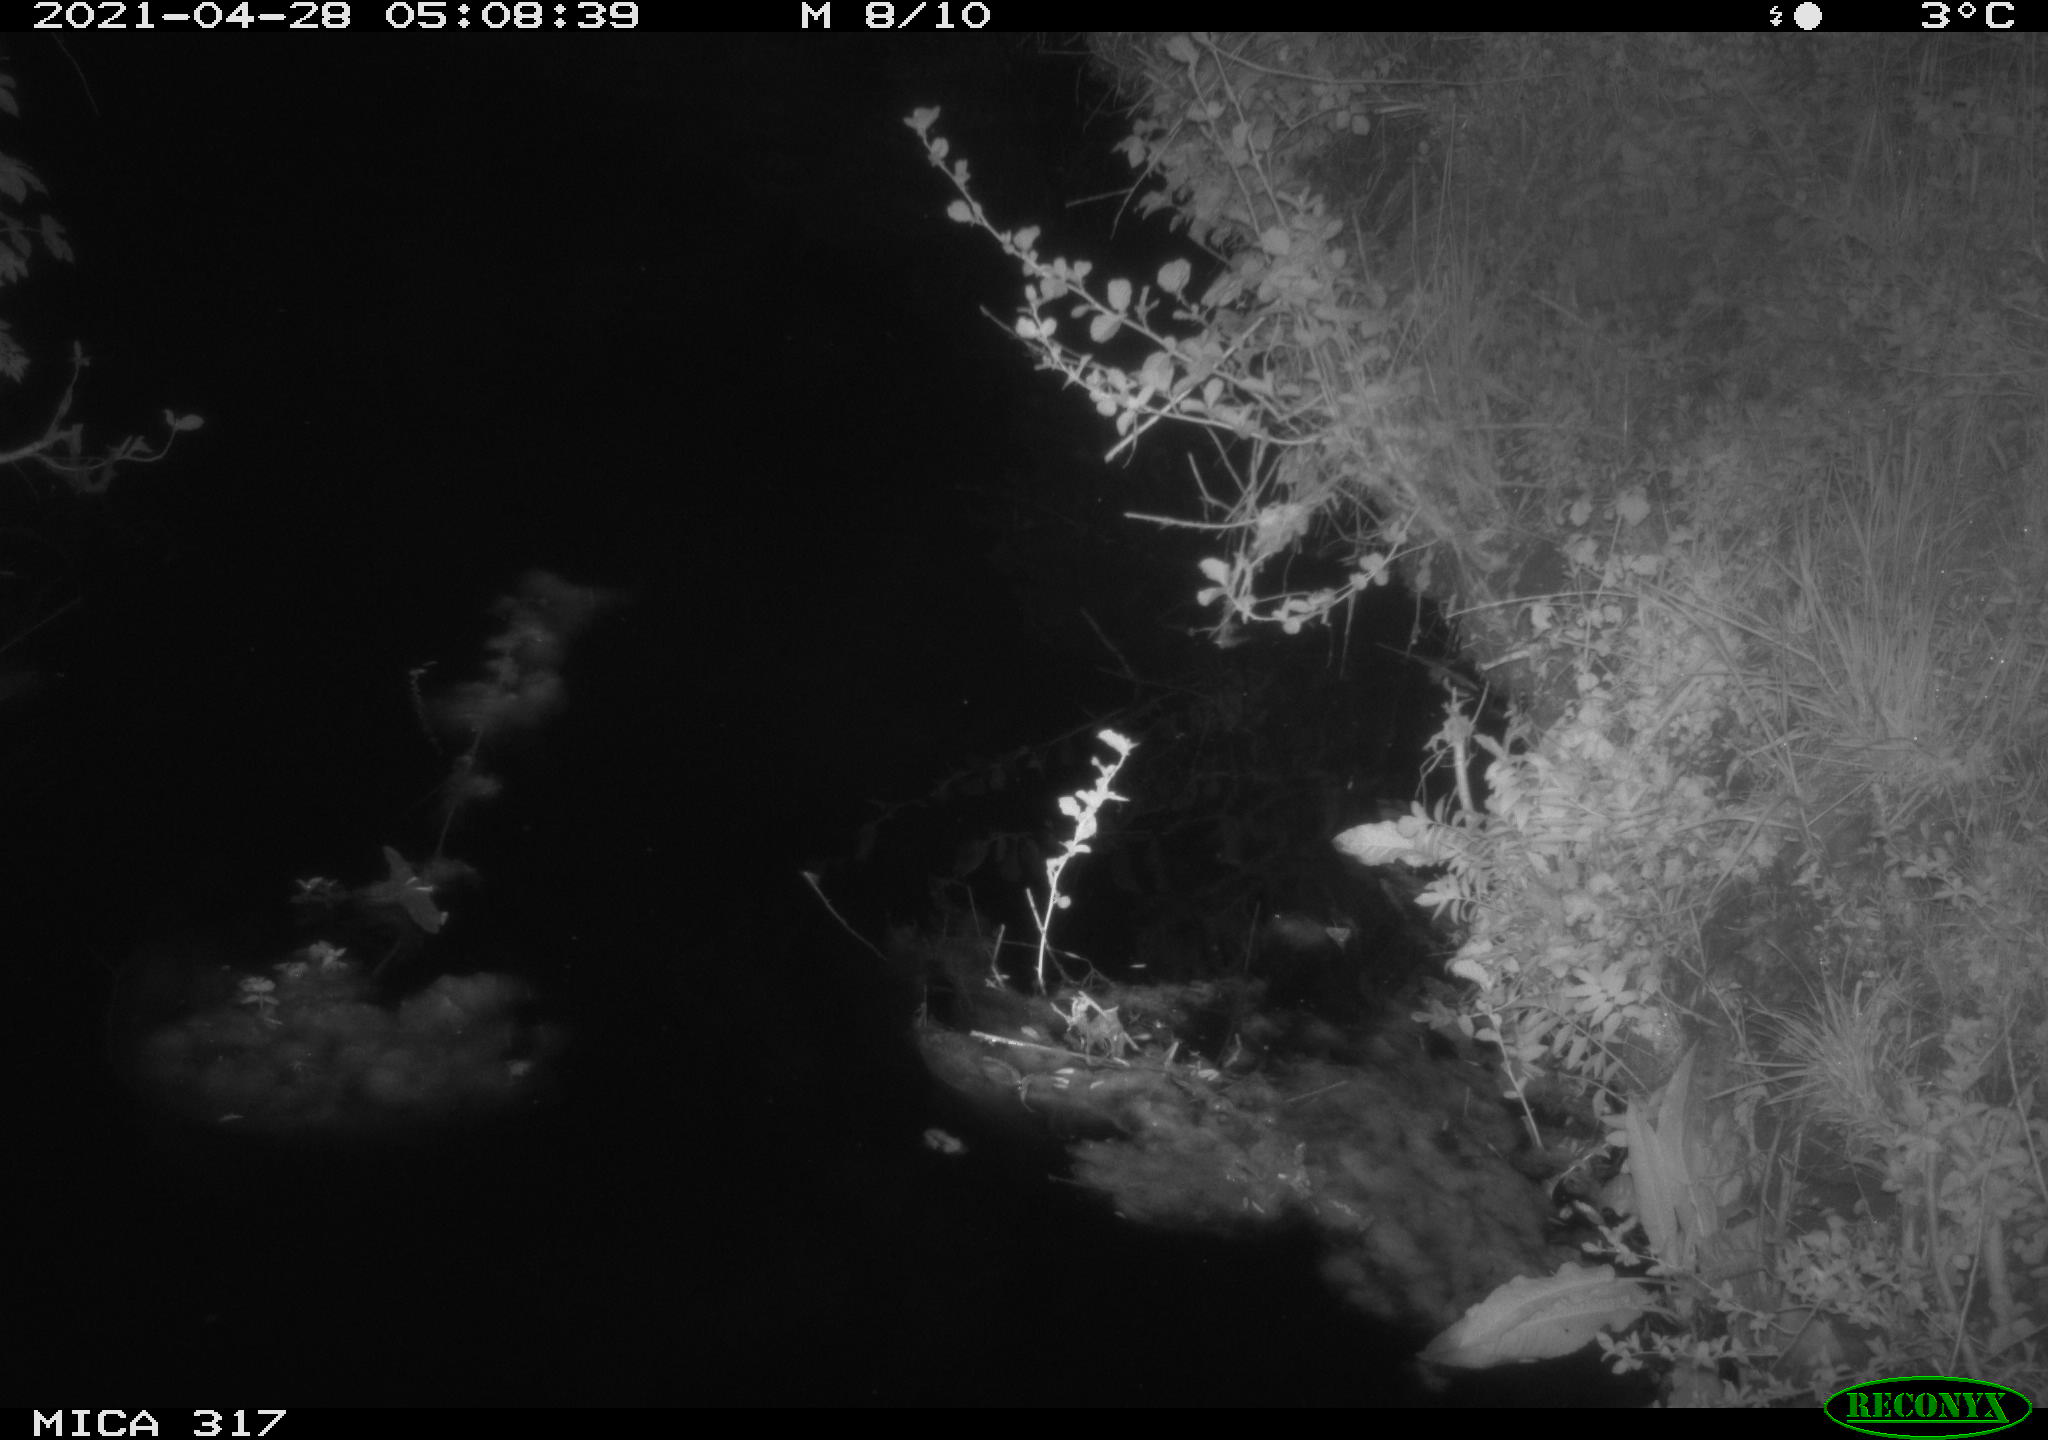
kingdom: Animalia
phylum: Chordata
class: Aves
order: Anseriformes
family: Anatidae
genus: Anas
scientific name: Anas
